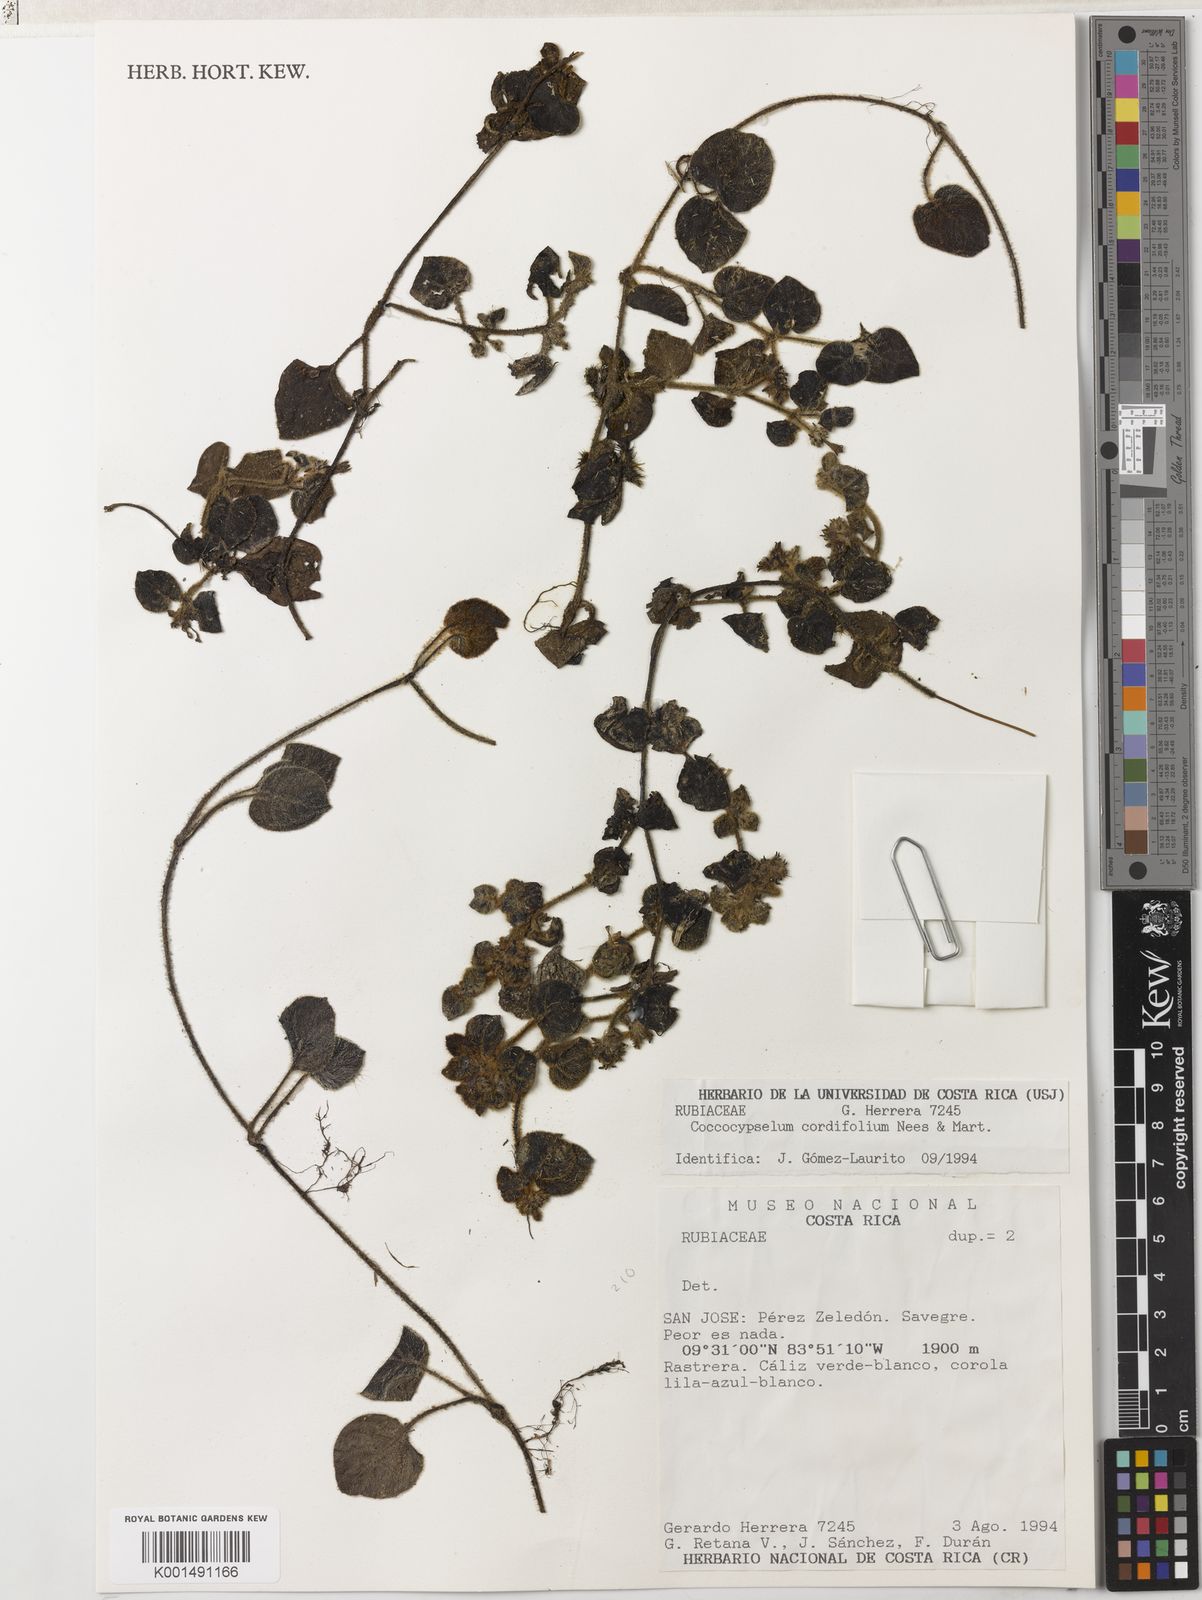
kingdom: Plantae
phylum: Tracheophyta
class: Magnoliopsida
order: Gentianales
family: Rubiaceae
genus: Coccocypselum
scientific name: Coccocypselum cordifolium
